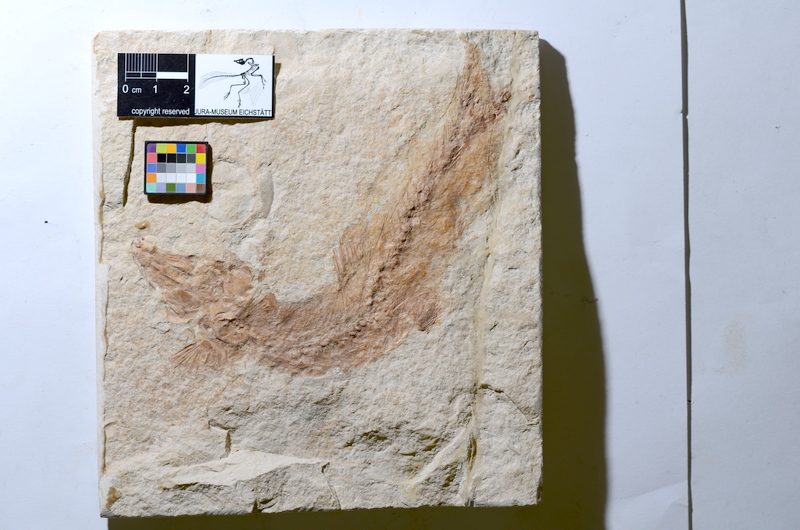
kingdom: Animalia
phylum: Chordata
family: Ascalaboidae
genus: Tharsis
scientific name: Tharsis
